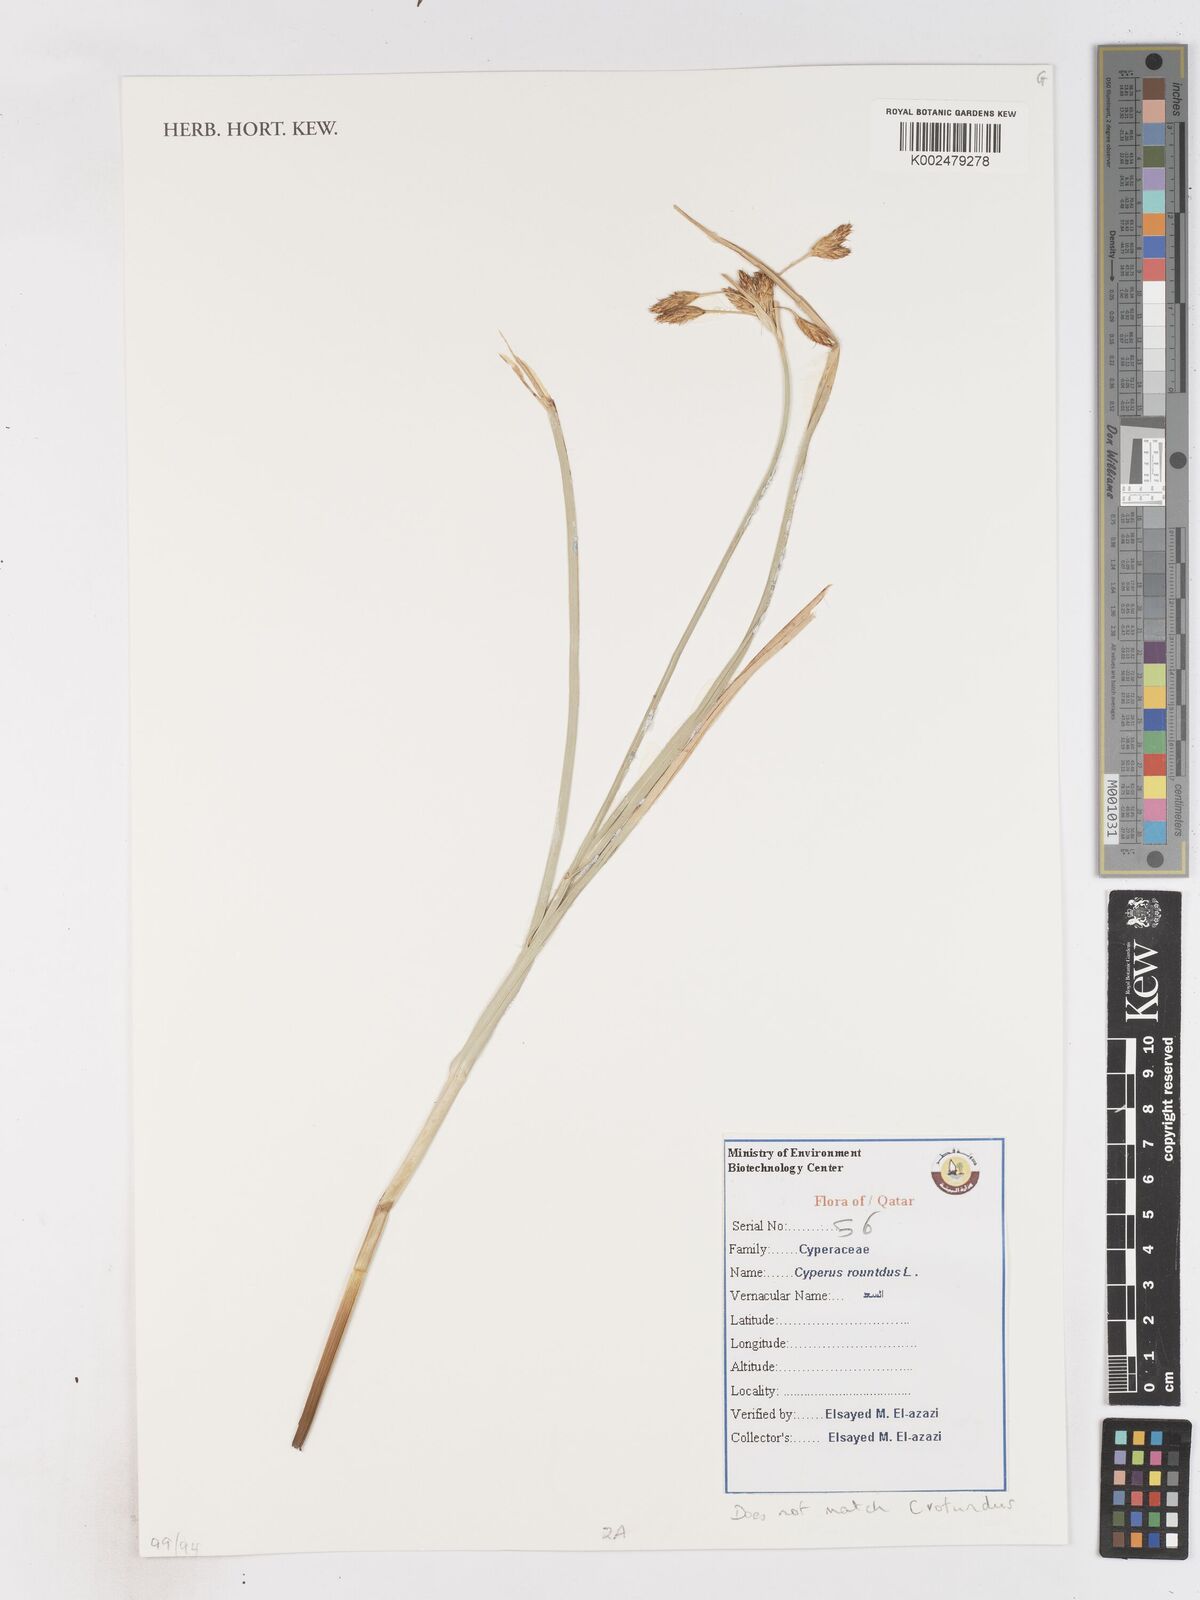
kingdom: Plantae
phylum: Tracheophyta
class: Liliopsida
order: Poales
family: Cyperaceae
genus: Cyperus
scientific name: Cyperus
